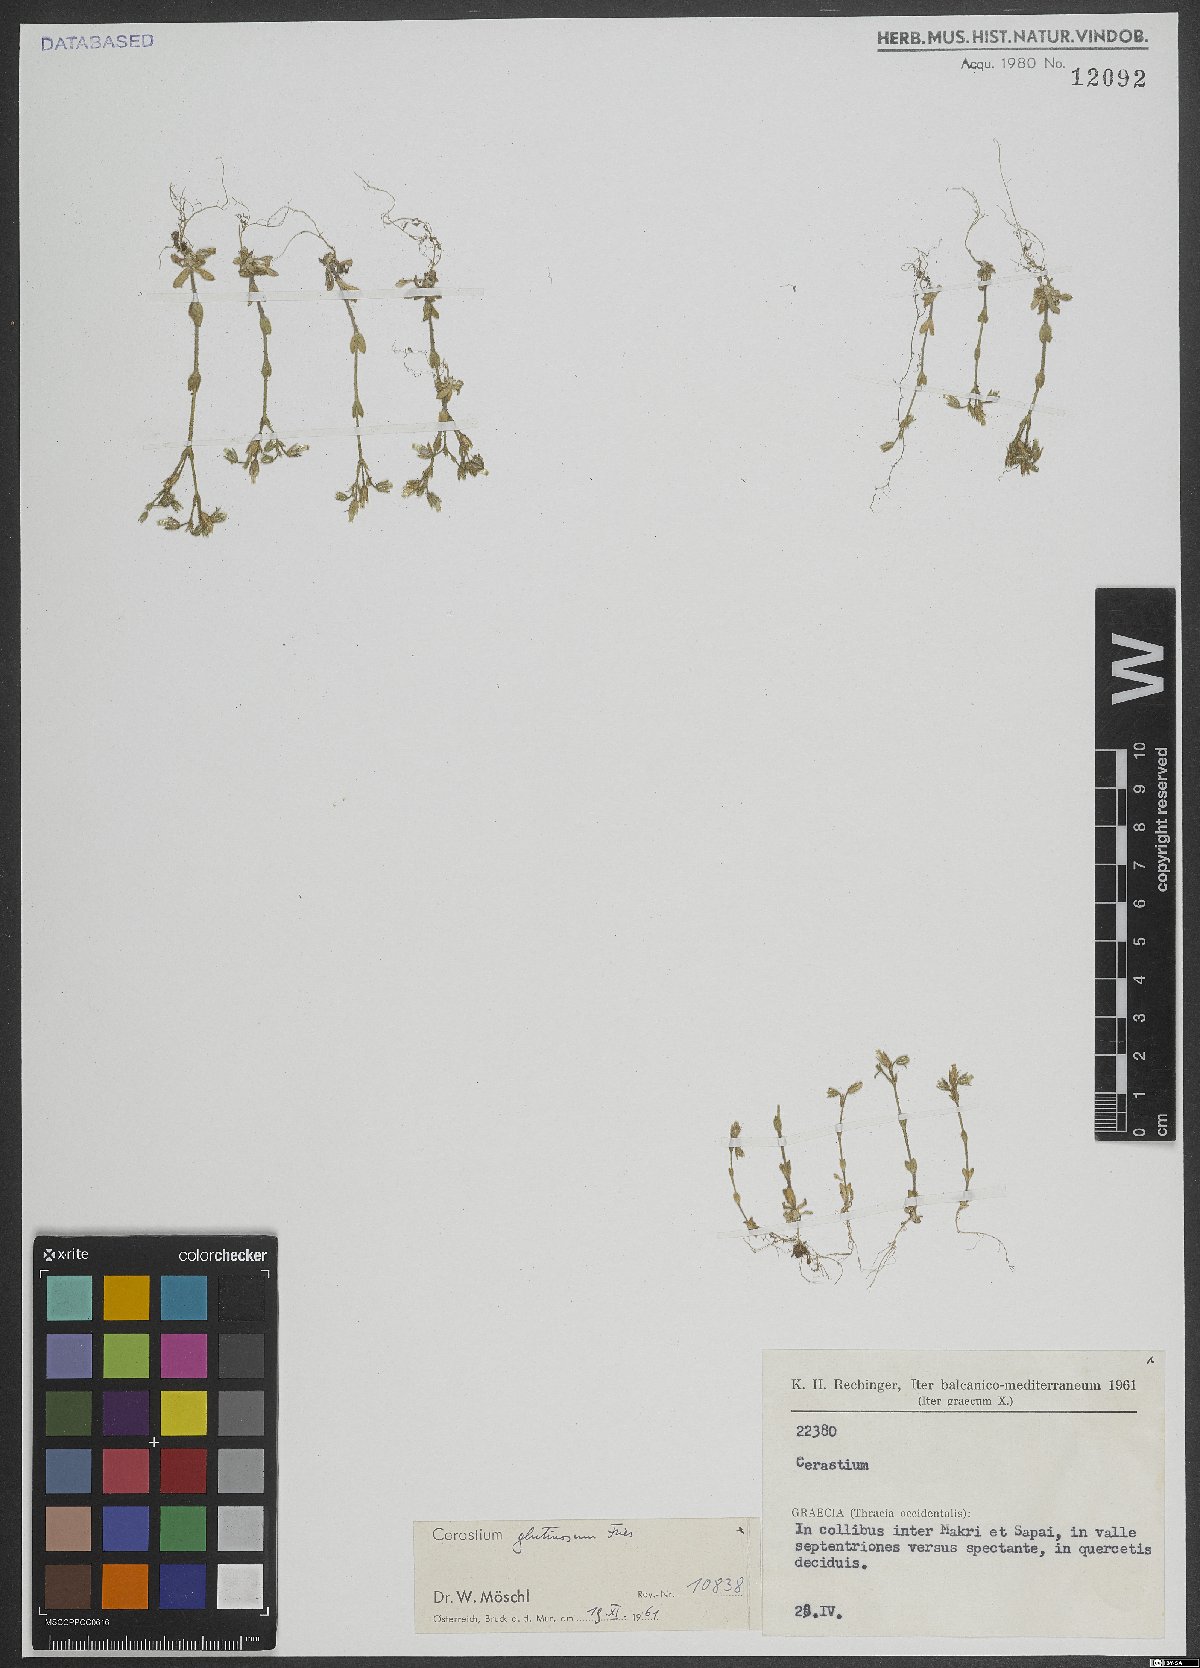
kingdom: Plantae
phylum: Tracheophyta
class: Magnoliopsida
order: Caryophyllales
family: Caryophyllaceae
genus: Cerastium
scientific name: Cerastium glutinosum
